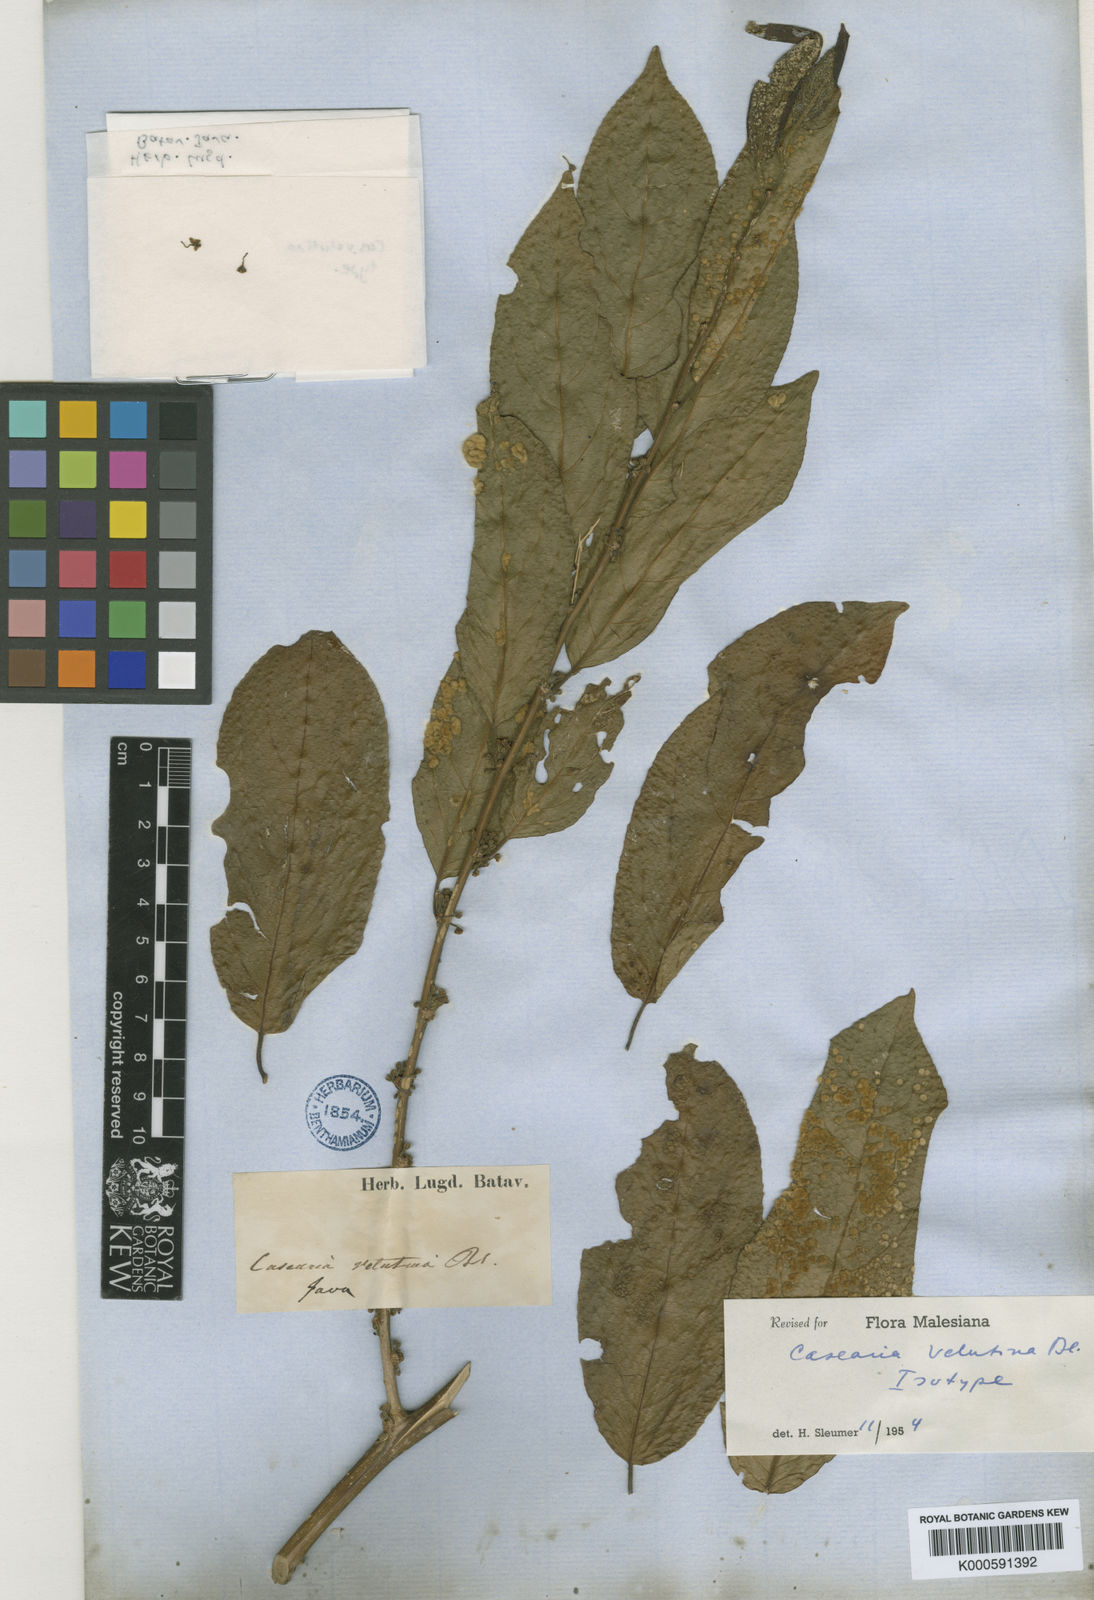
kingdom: Plantae
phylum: Tracheophyta
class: Magnoliopsida
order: Malpighiales
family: Salicaceae
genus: Casearia
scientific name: Casearia velutina
